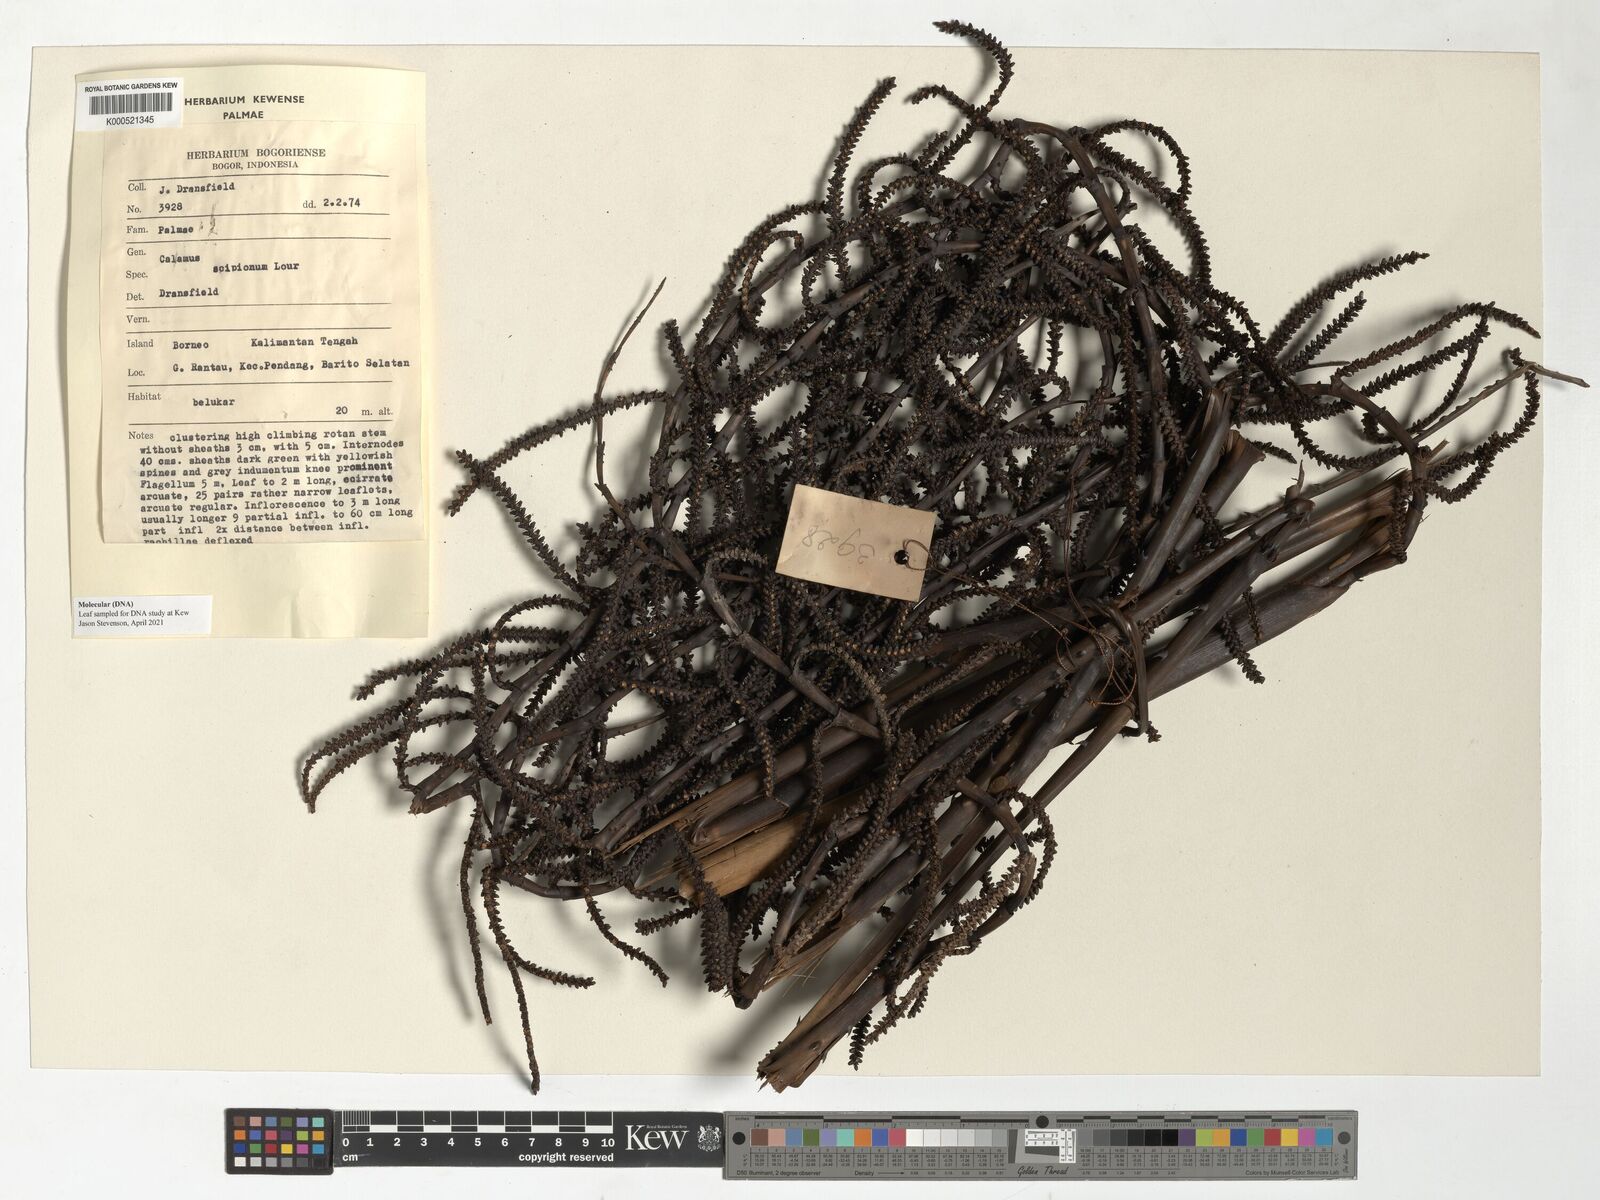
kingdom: Plantae
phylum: Tracheophyta
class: Liliopsida
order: Arecales
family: Arecaceae
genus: Calamus
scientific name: Calamus scipionum
